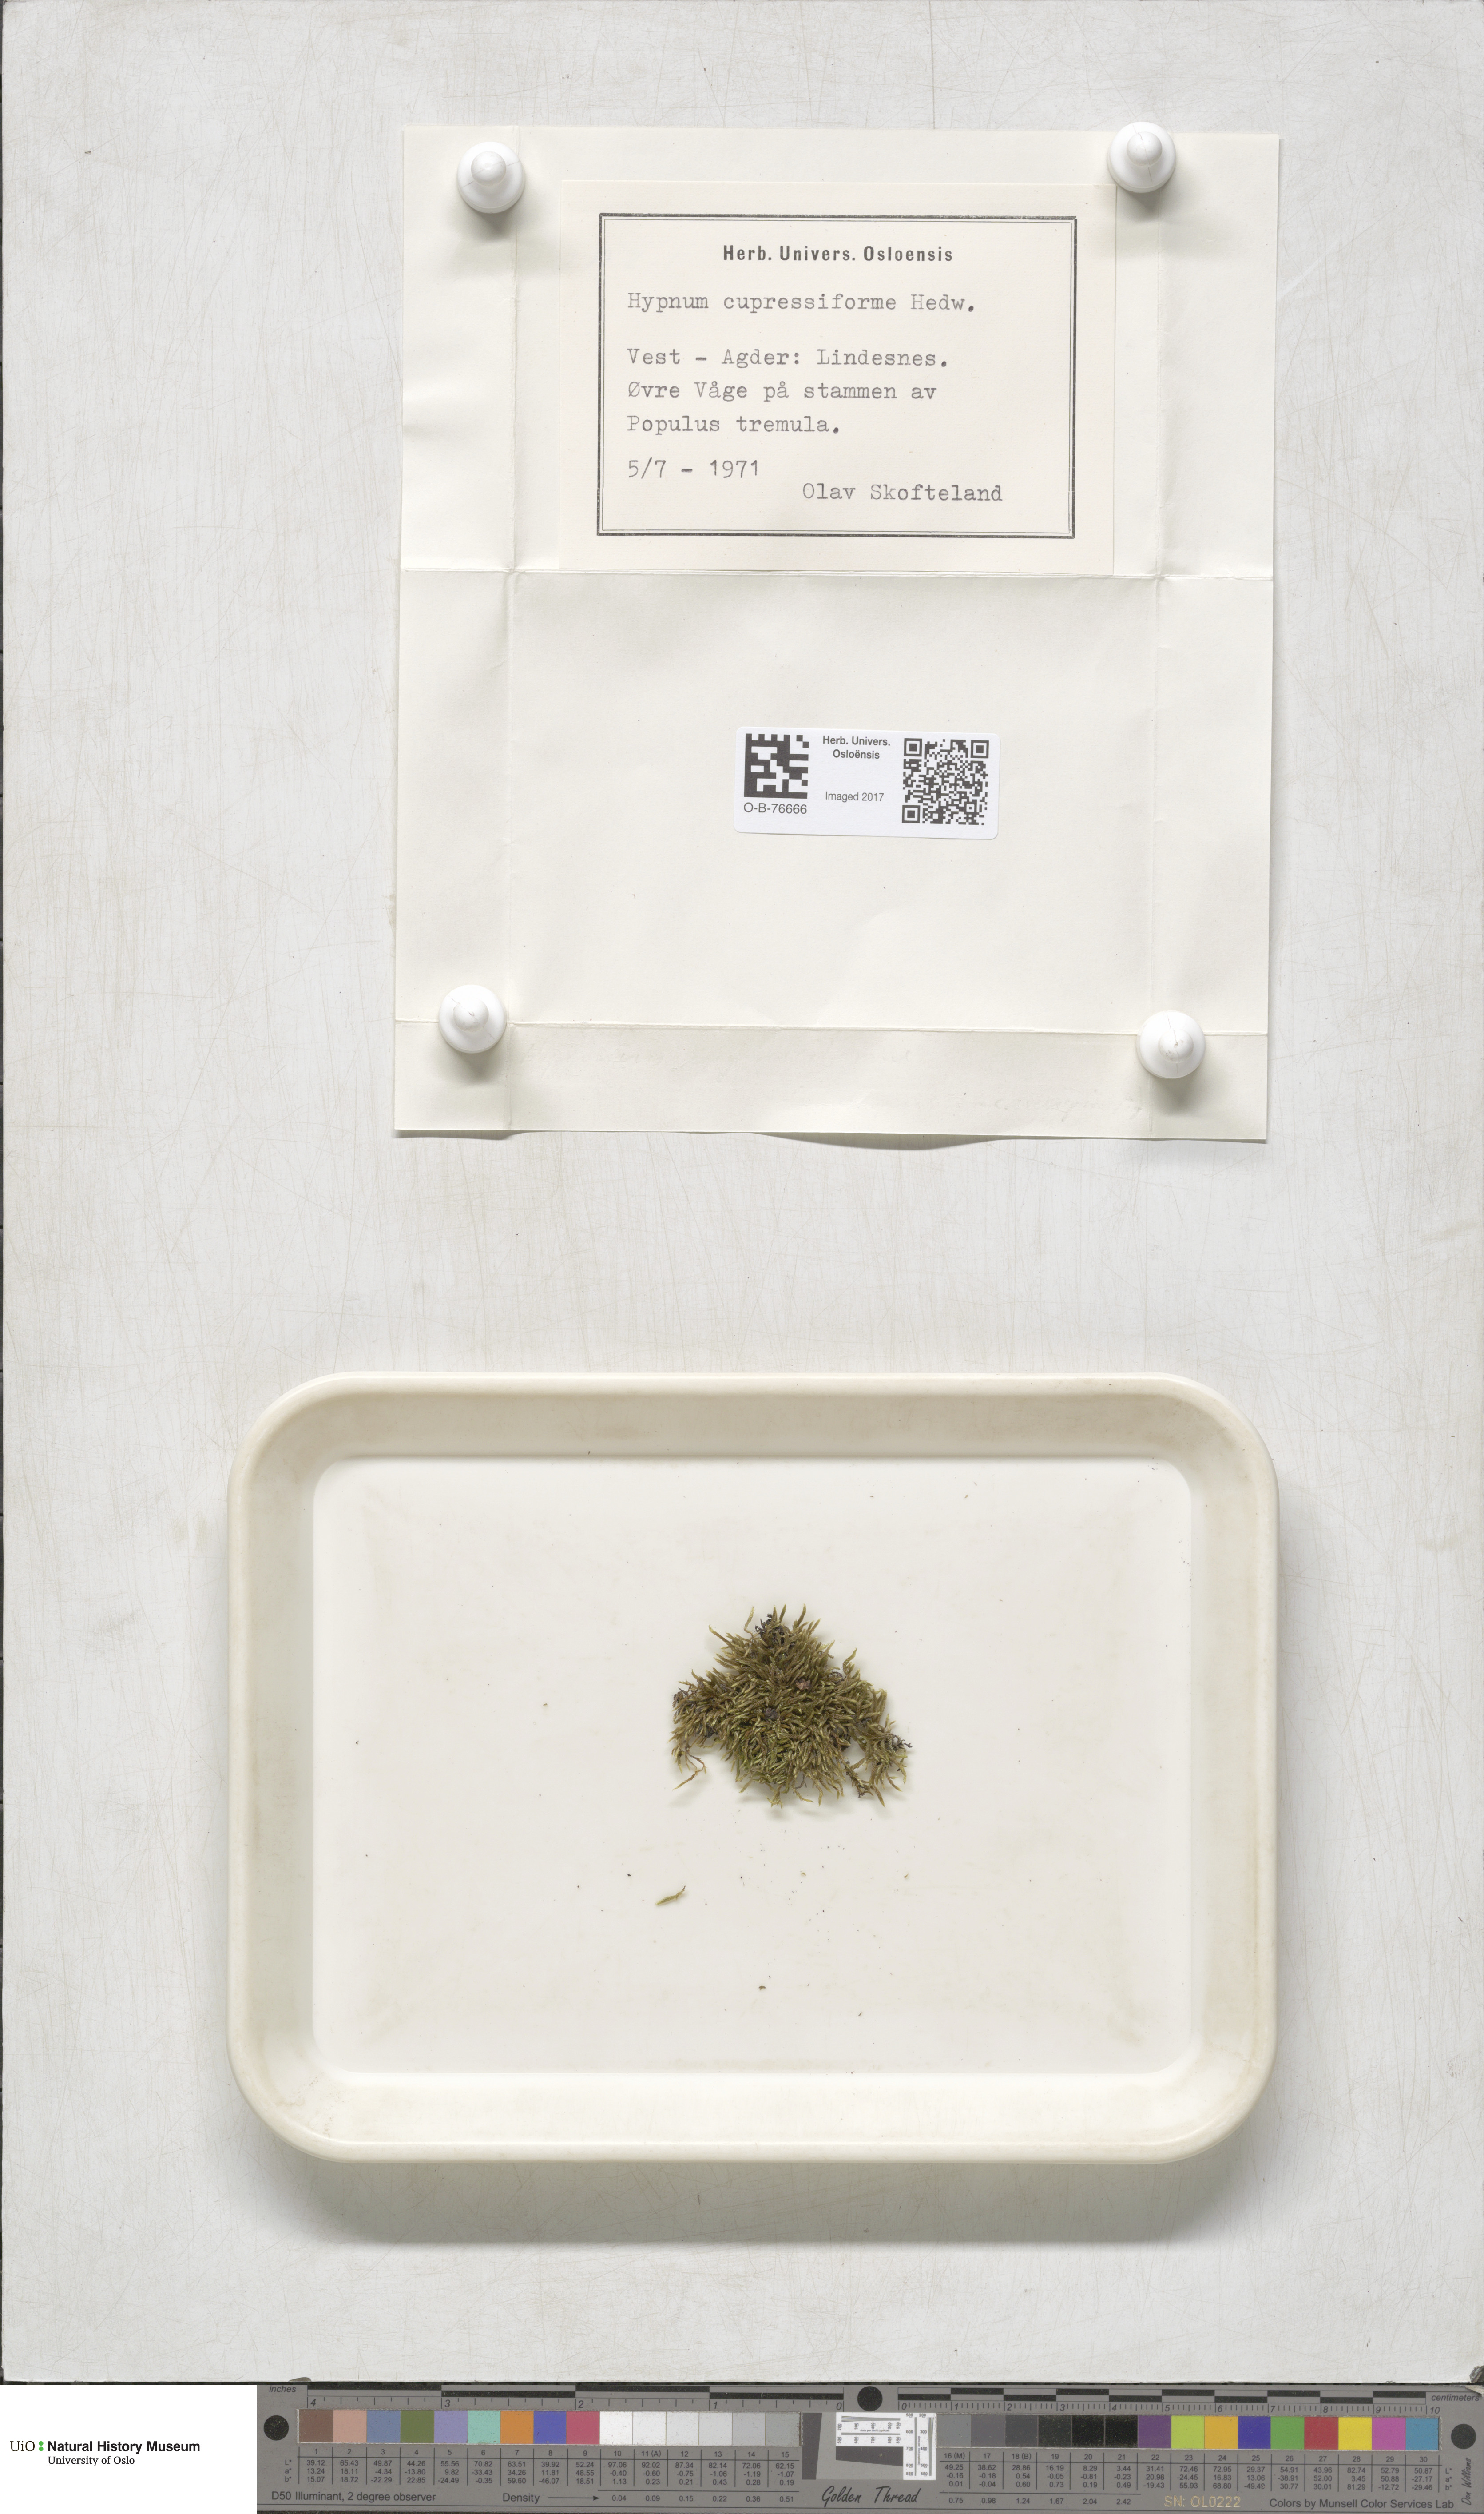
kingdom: Plantae
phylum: Bryophyta
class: Bryopsida
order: Hypnales
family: Hypnaceae
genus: Hypnum
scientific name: Hypnum cupressiforme
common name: Cypress-leaved plait-moss
